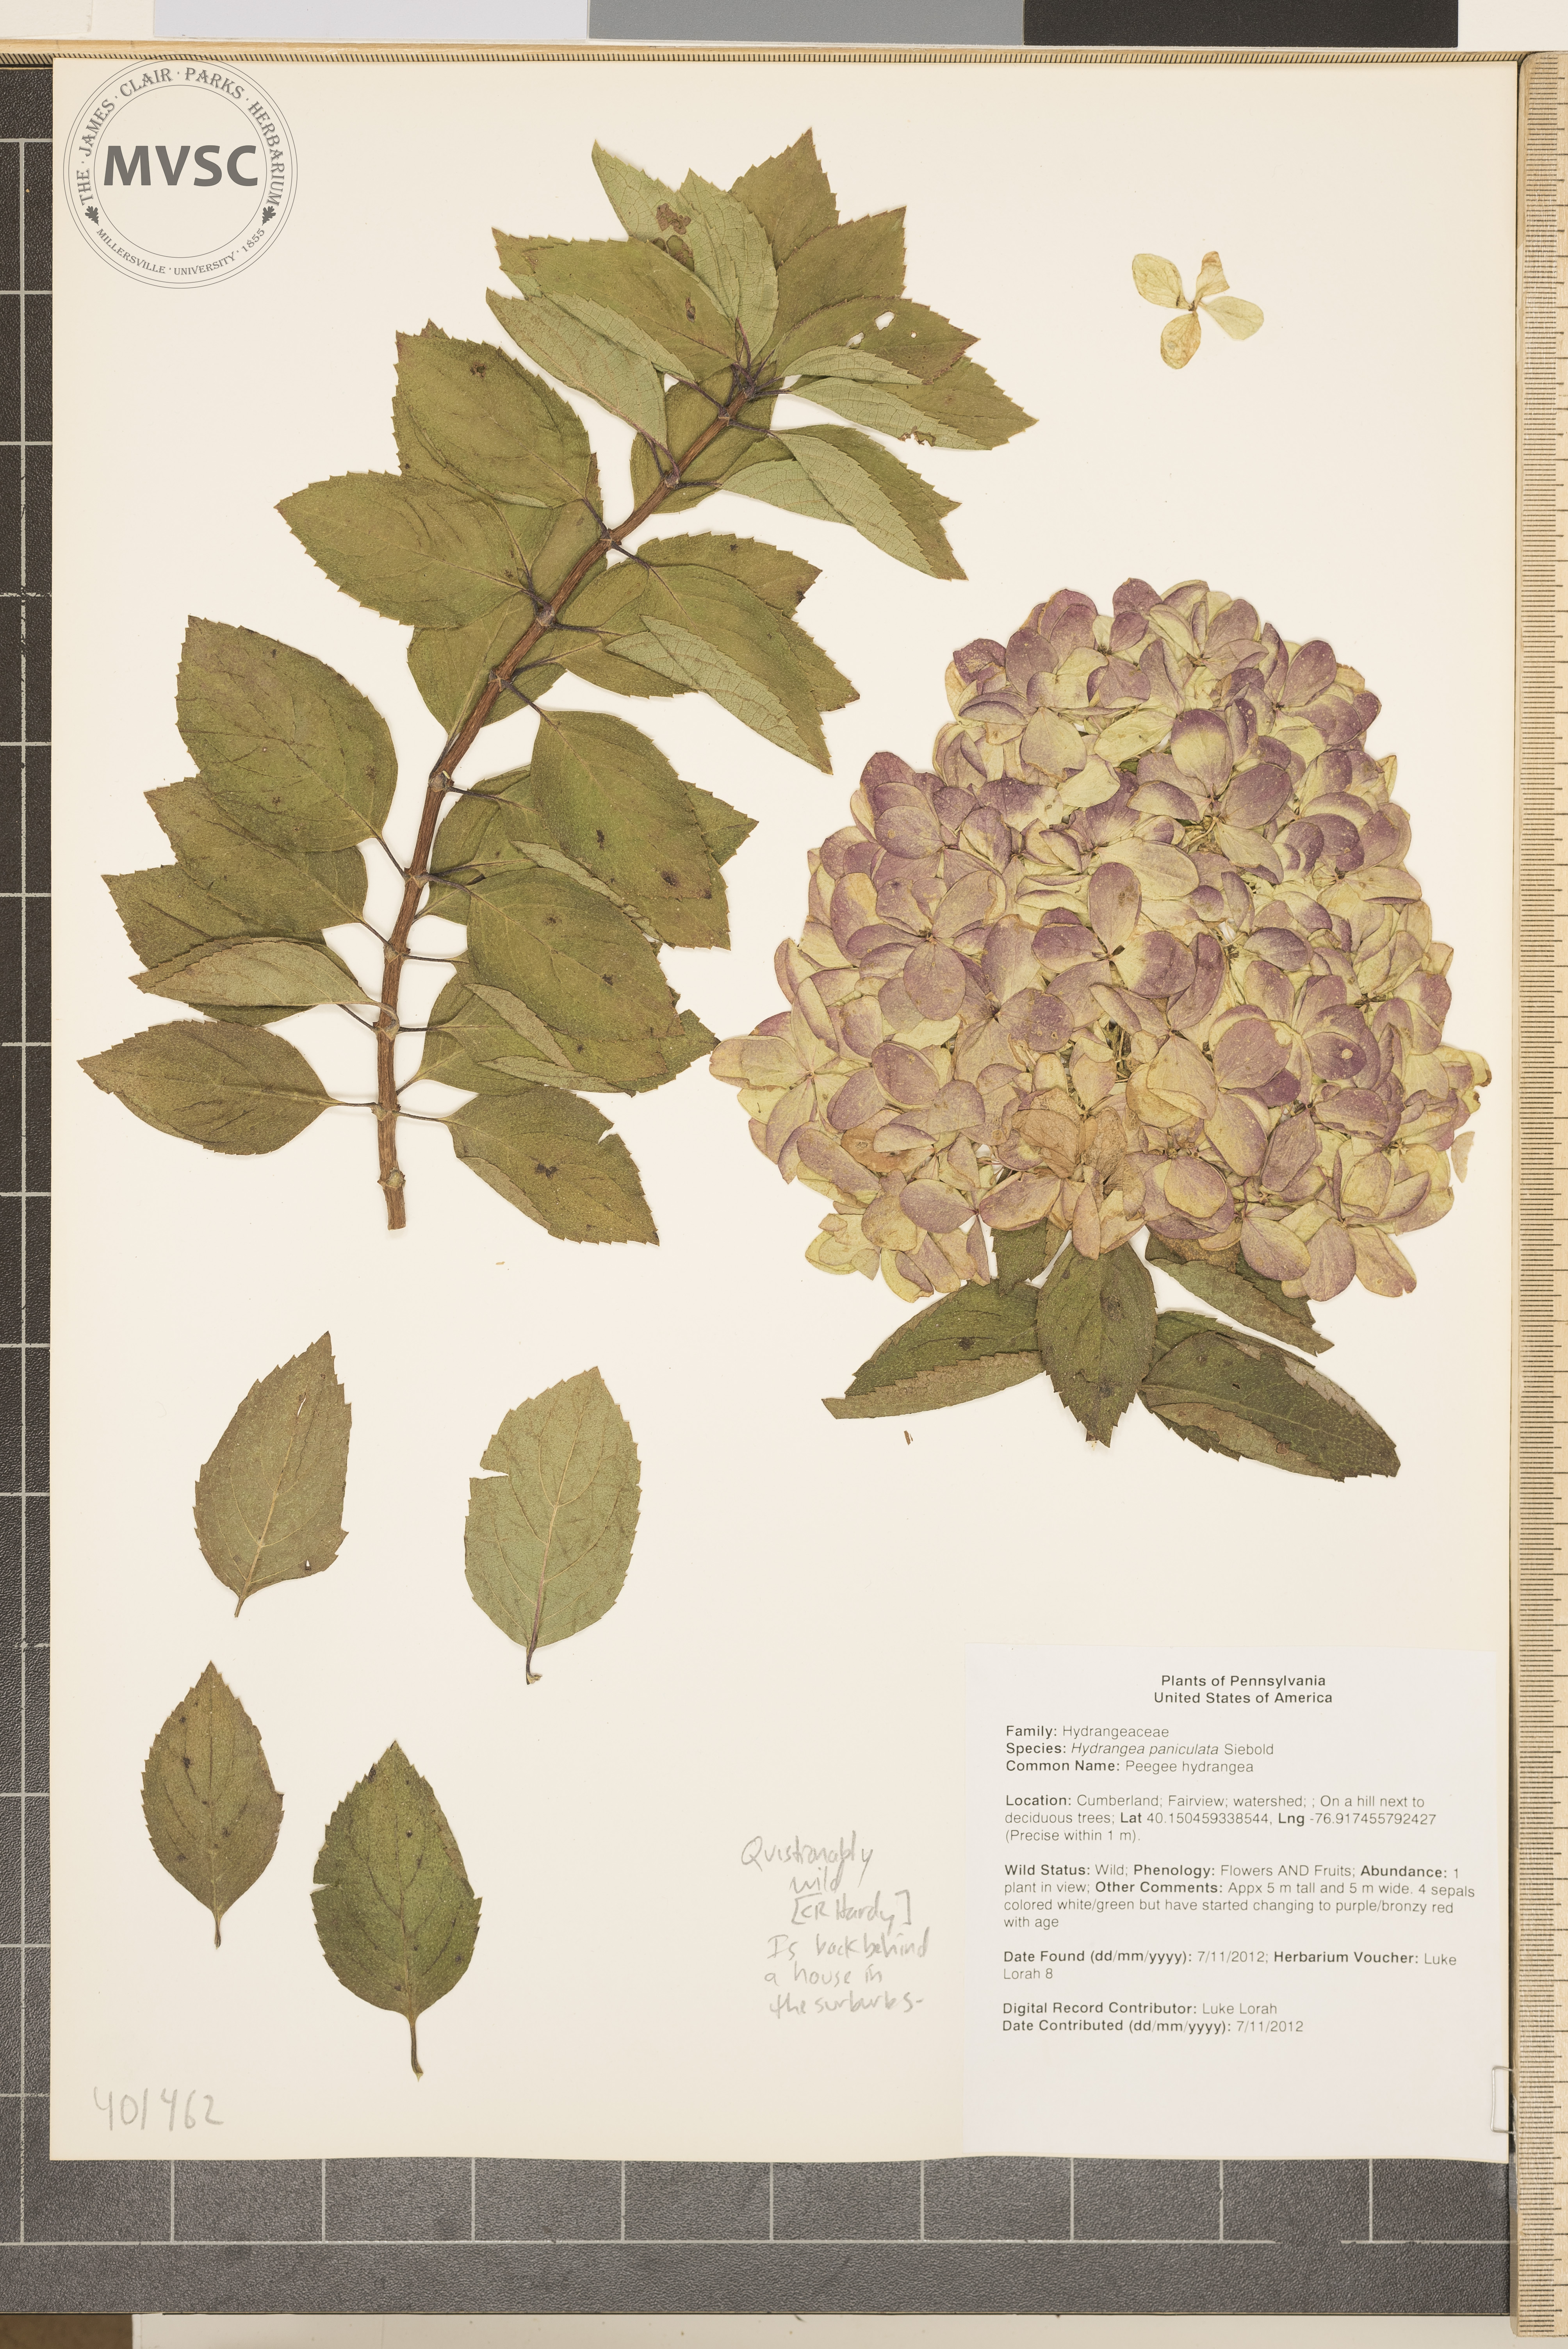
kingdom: Plantae
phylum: Tracheophyta
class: Magnoliopsida
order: Cornales
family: Hydrangeaceae
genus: Hydrangea
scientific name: Hydrangea paniculata
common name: Peegee hydrangea
